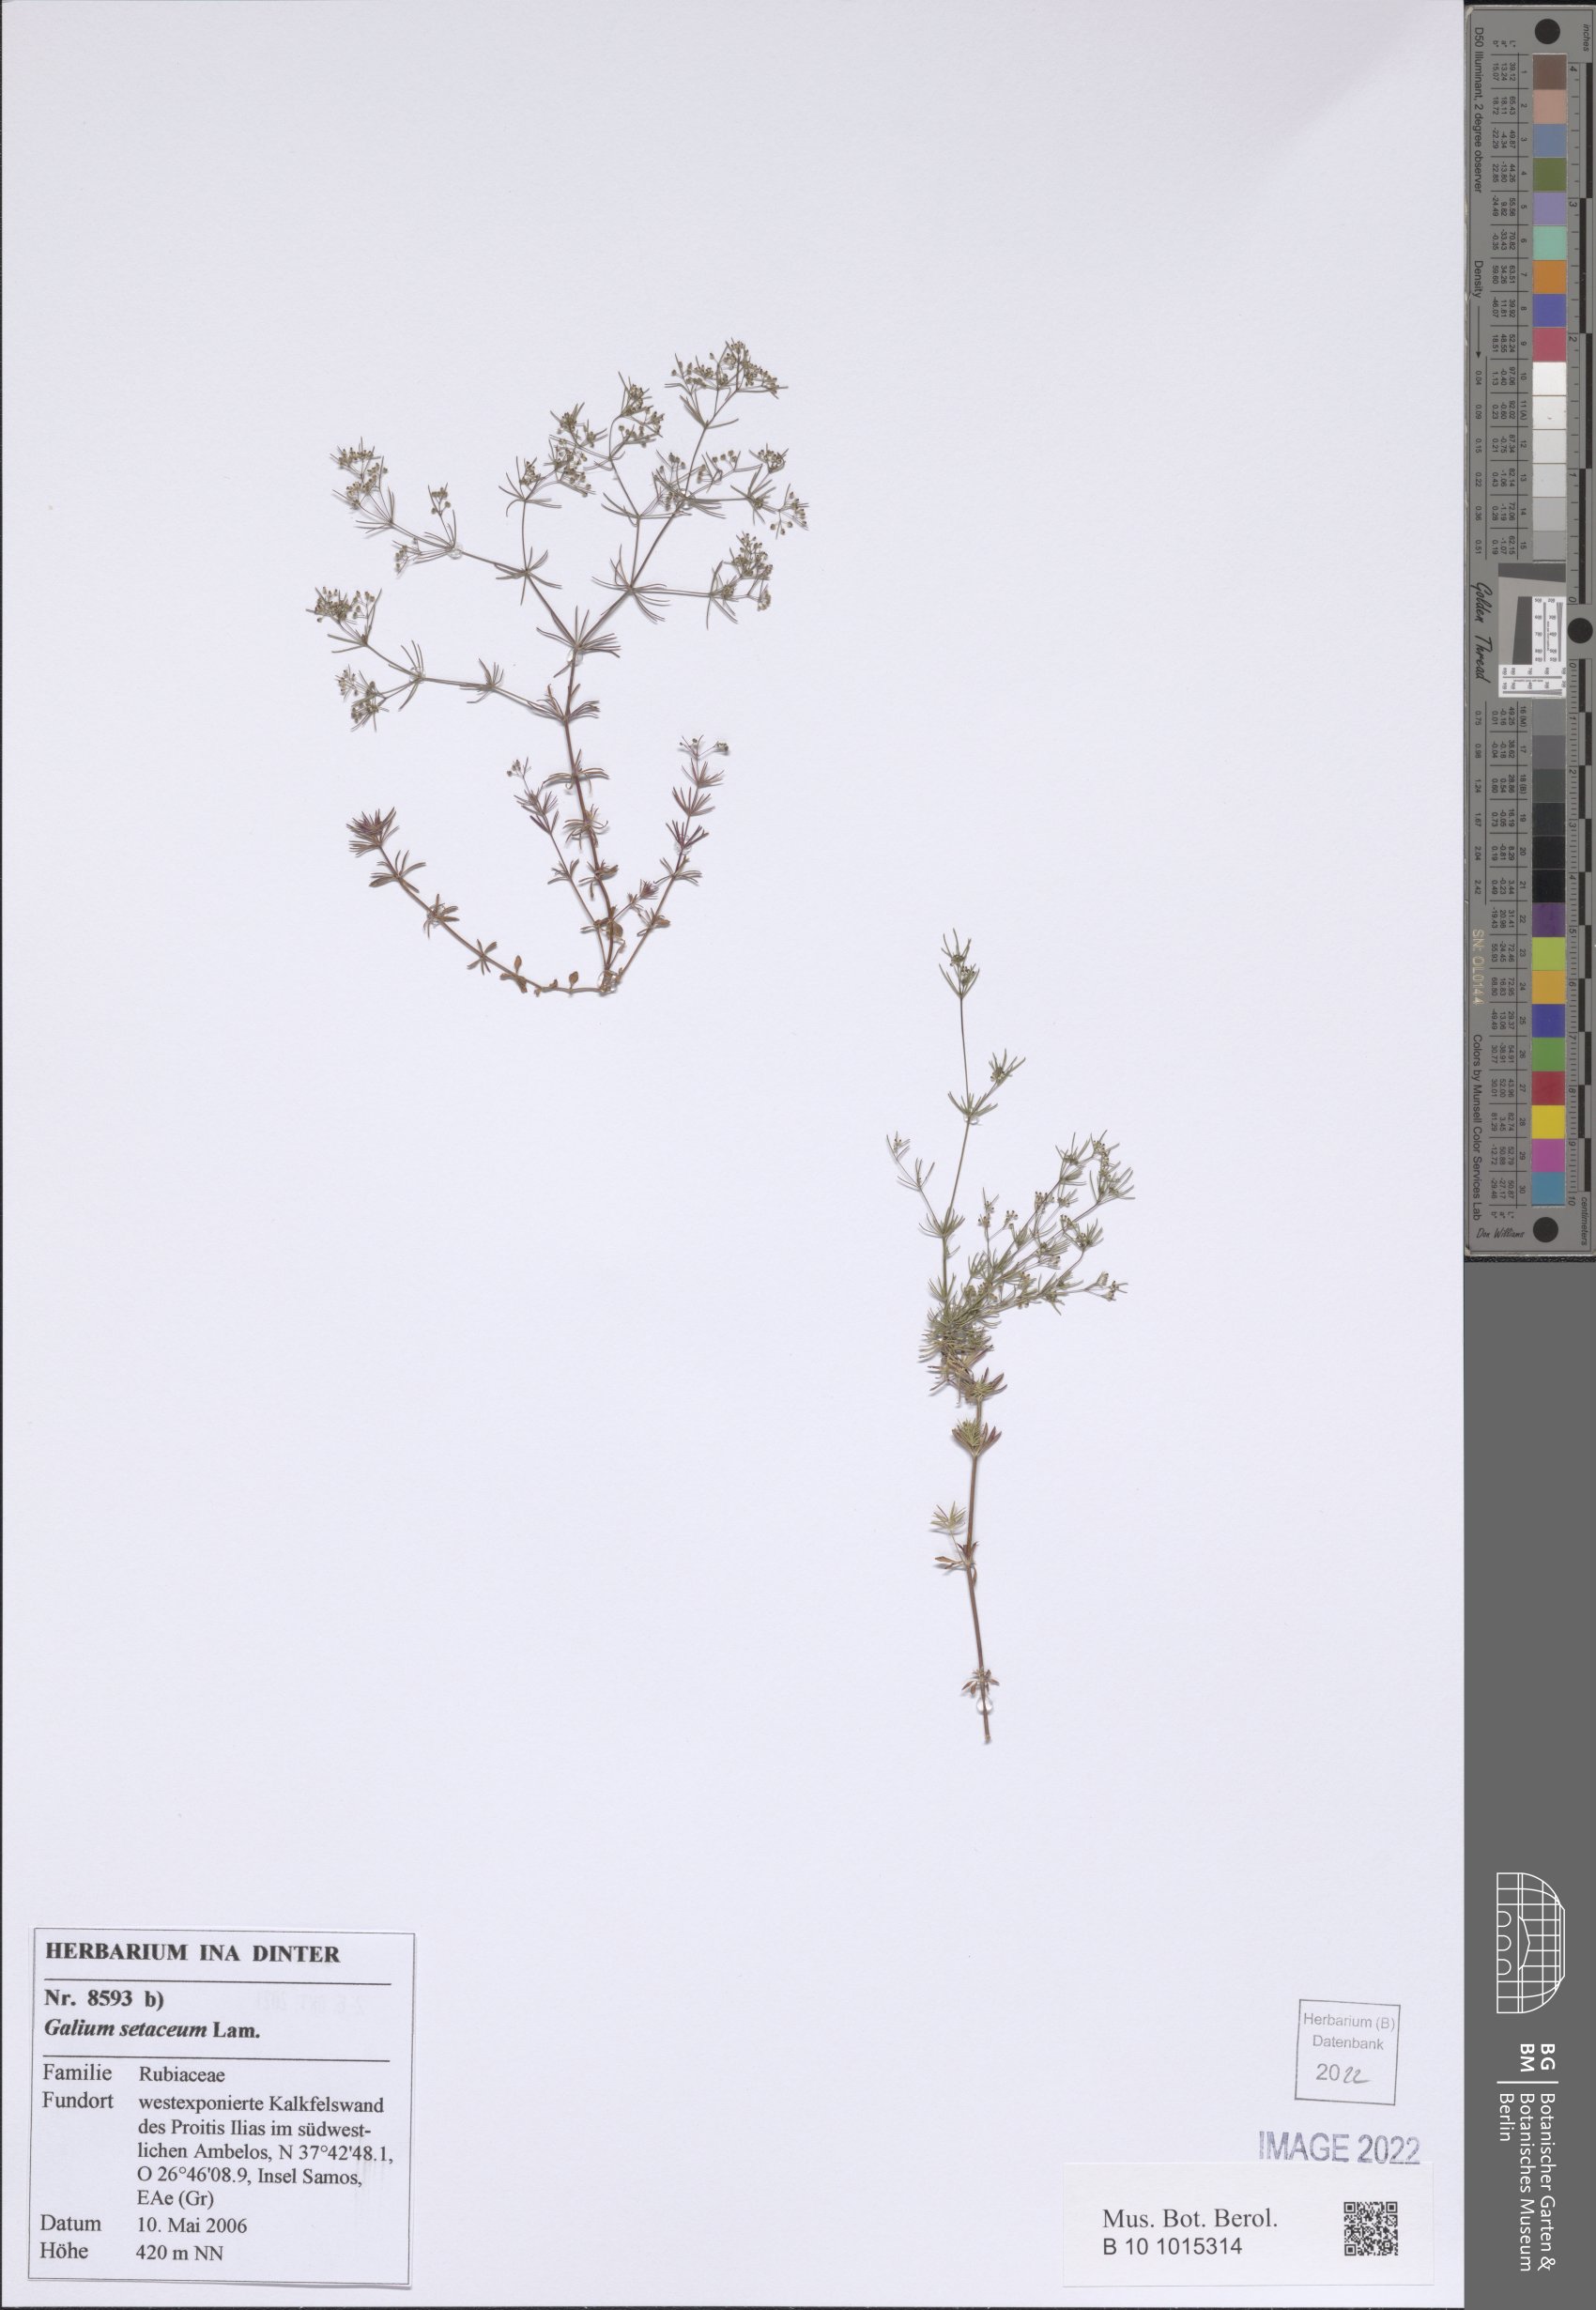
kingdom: Plantae
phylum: Tracheophyta
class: Magnoliopsida
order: Gentianales
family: Rubiaceae
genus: Galium
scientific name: Galium setaceum
